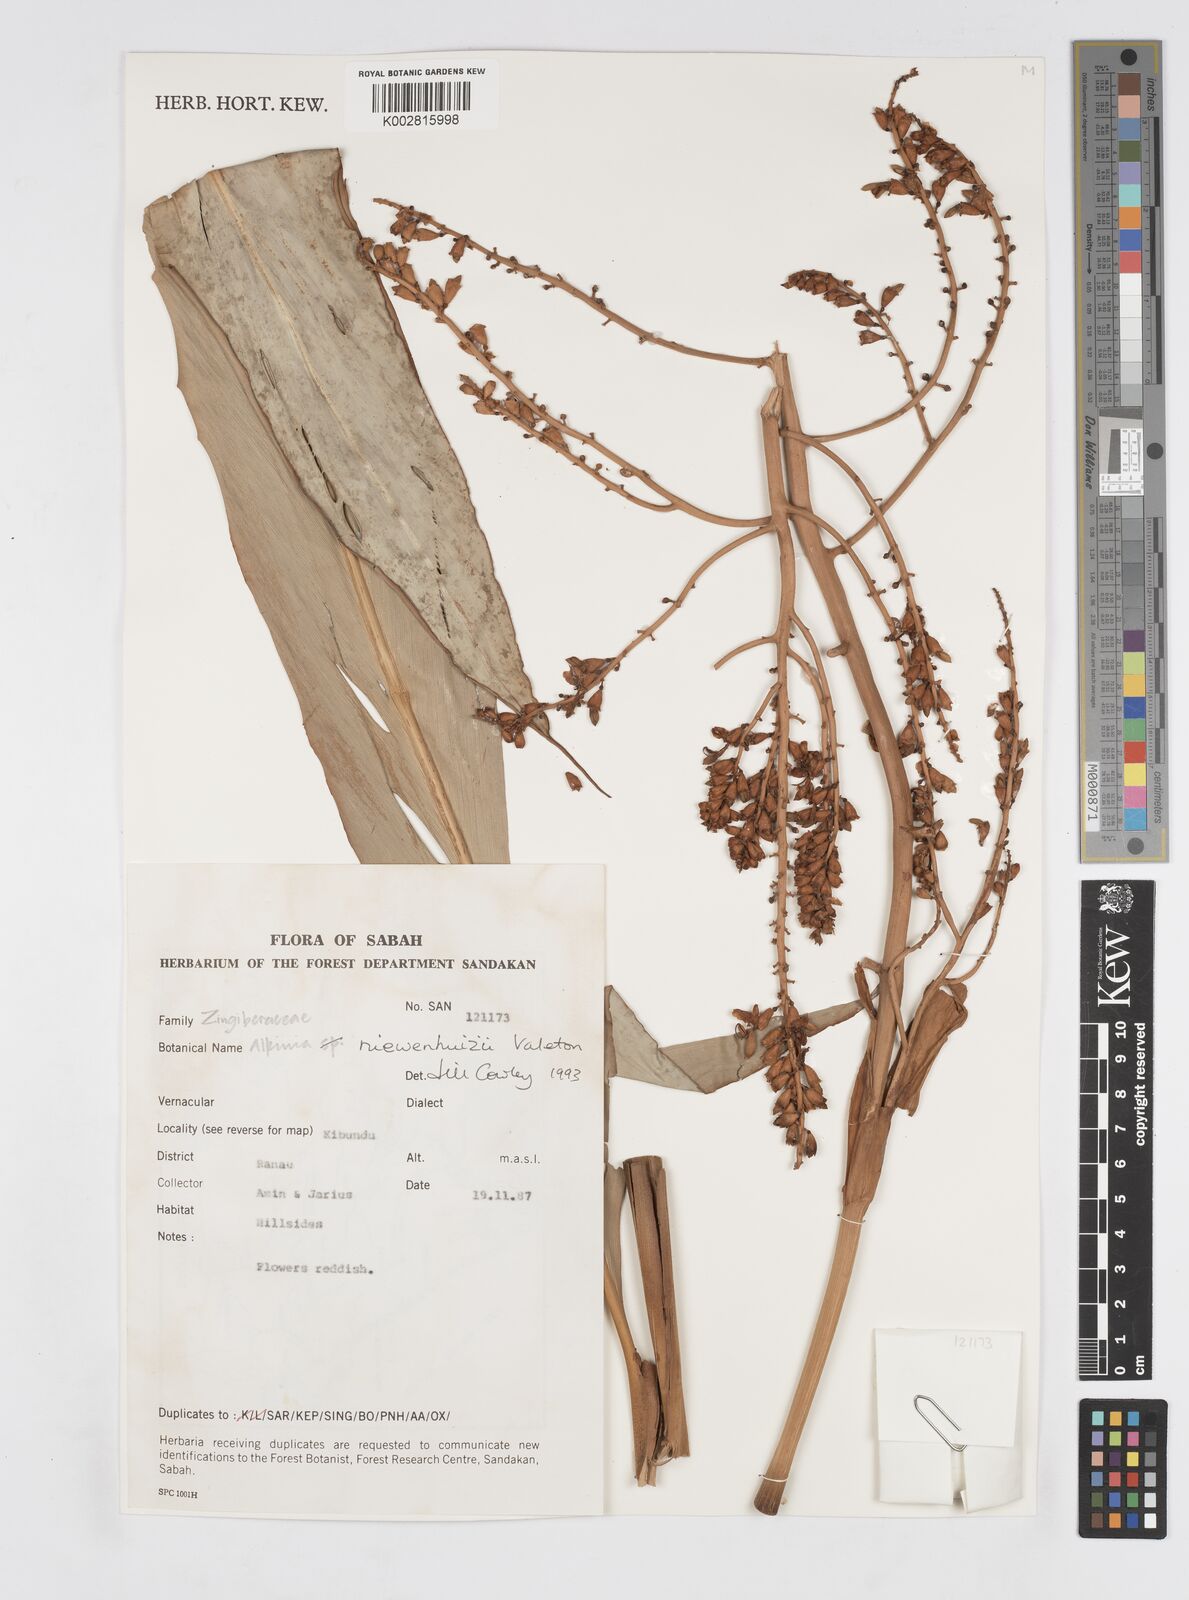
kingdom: Plantae
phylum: Tracheophyta
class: Liliopsida
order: Zingiberales
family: Zingiberaceae
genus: Alpinia
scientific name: Alpinia nieuwenhuizii
